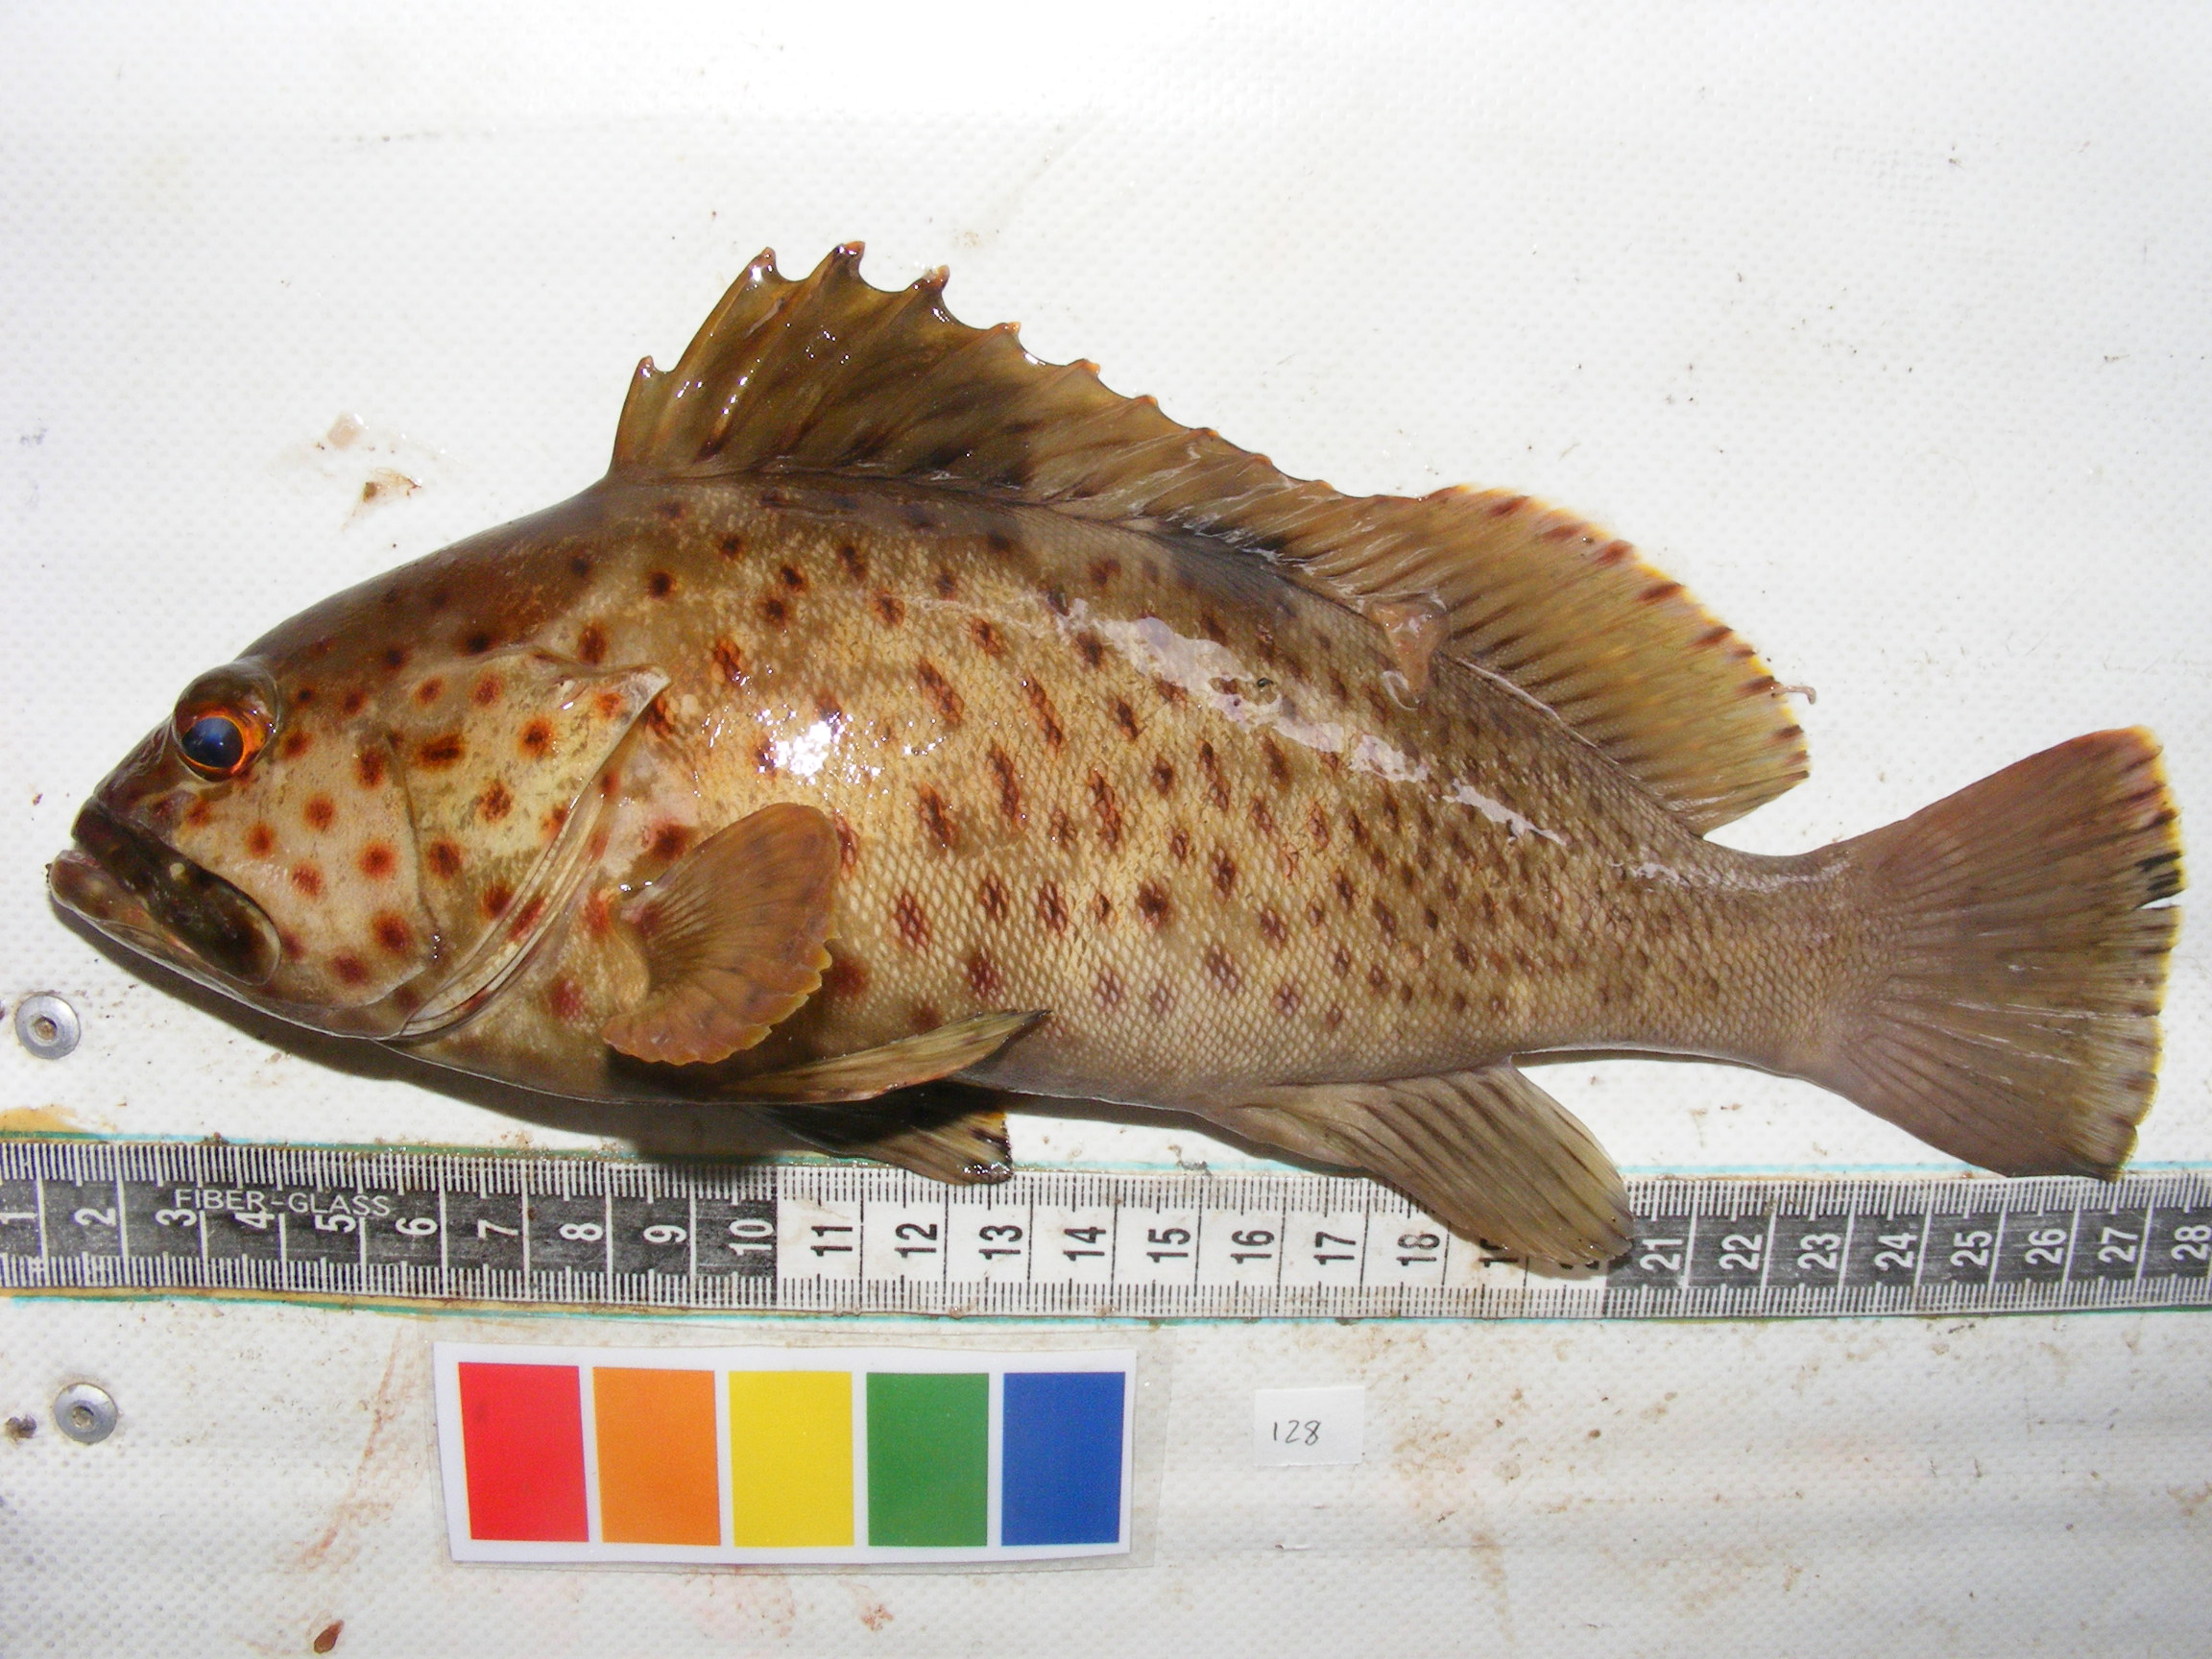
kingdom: Animalia
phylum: Chordata
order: Perciformes
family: Serranidae
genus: Epinephelus
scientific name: Epinephelus tauvina
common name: Greasy grouper
